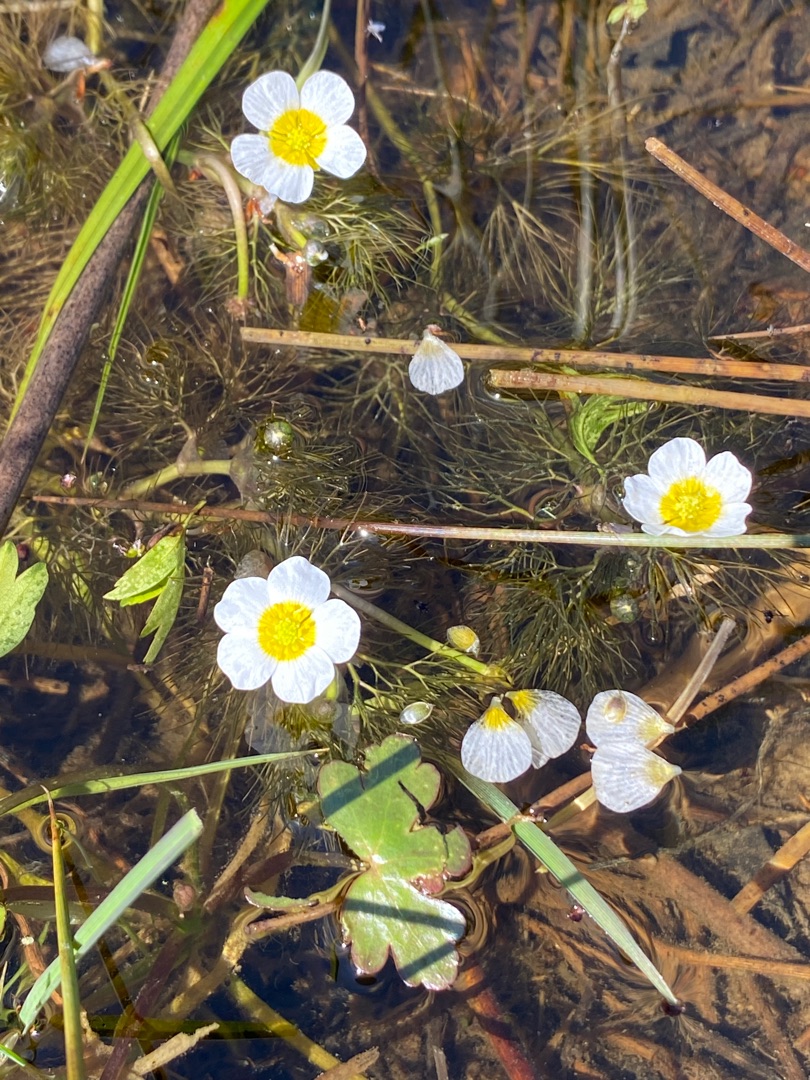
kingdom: Plantae
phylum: Tracheophyta
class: Magnoliopsida
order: Ranunculales
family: Ranunculaceae
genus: Ranunculus
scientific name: Ranunculus peltatus
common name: Storblomstret vandranunkel
